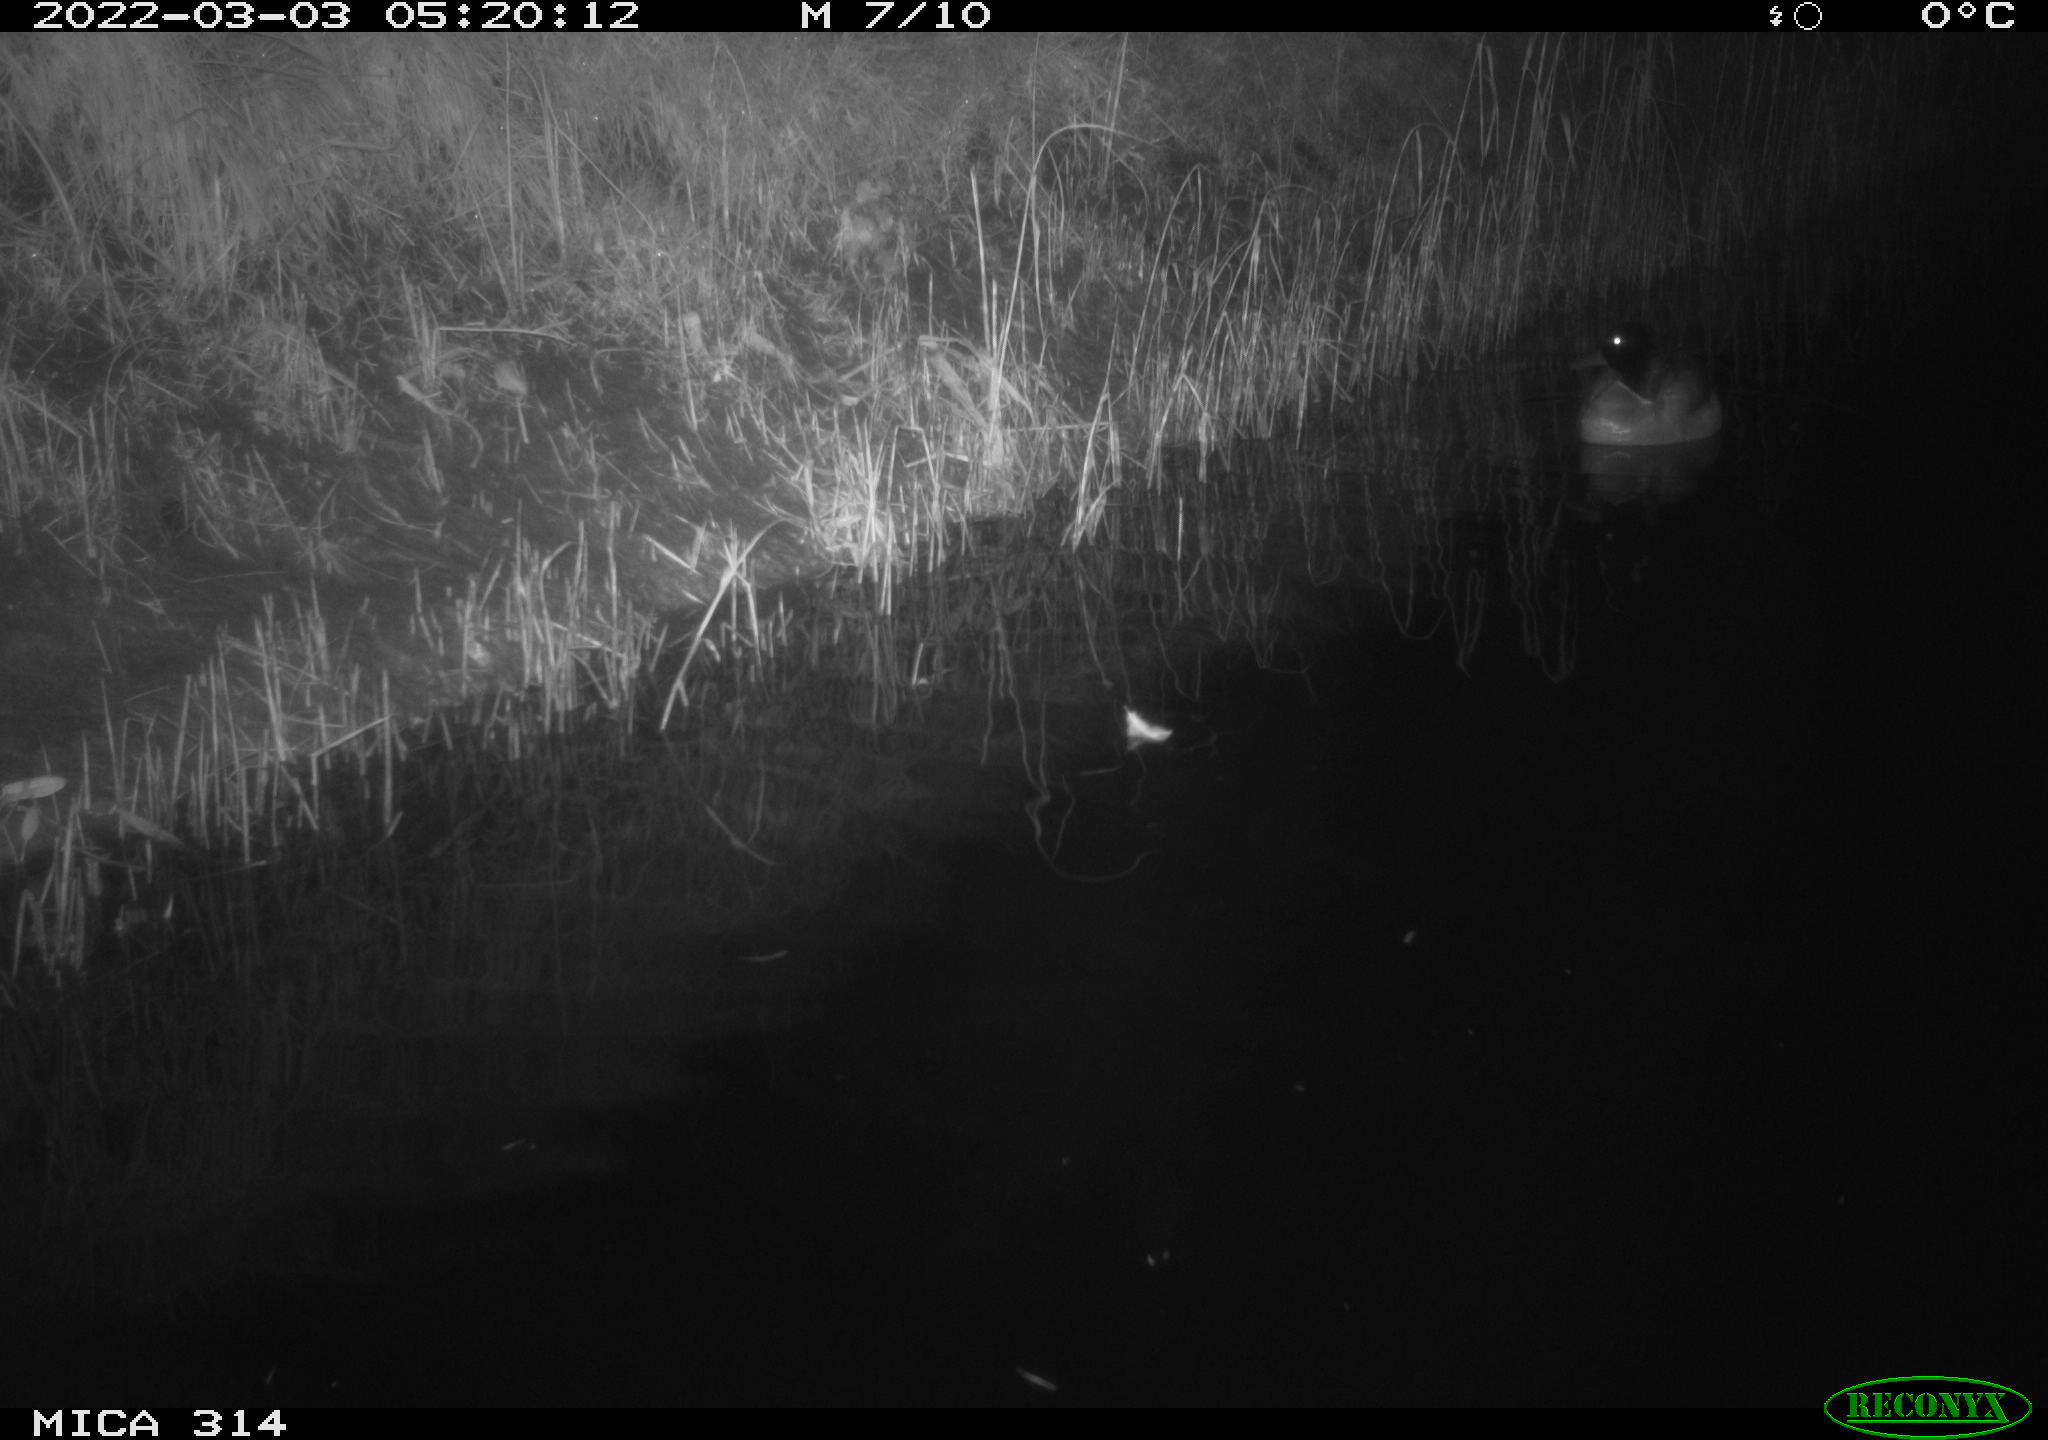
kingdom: Animalia
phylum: Chordata
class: Aves
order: Anseriformes
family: Anatidae
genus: Anas
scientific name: Anas platyrhynchos
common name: Mallard
